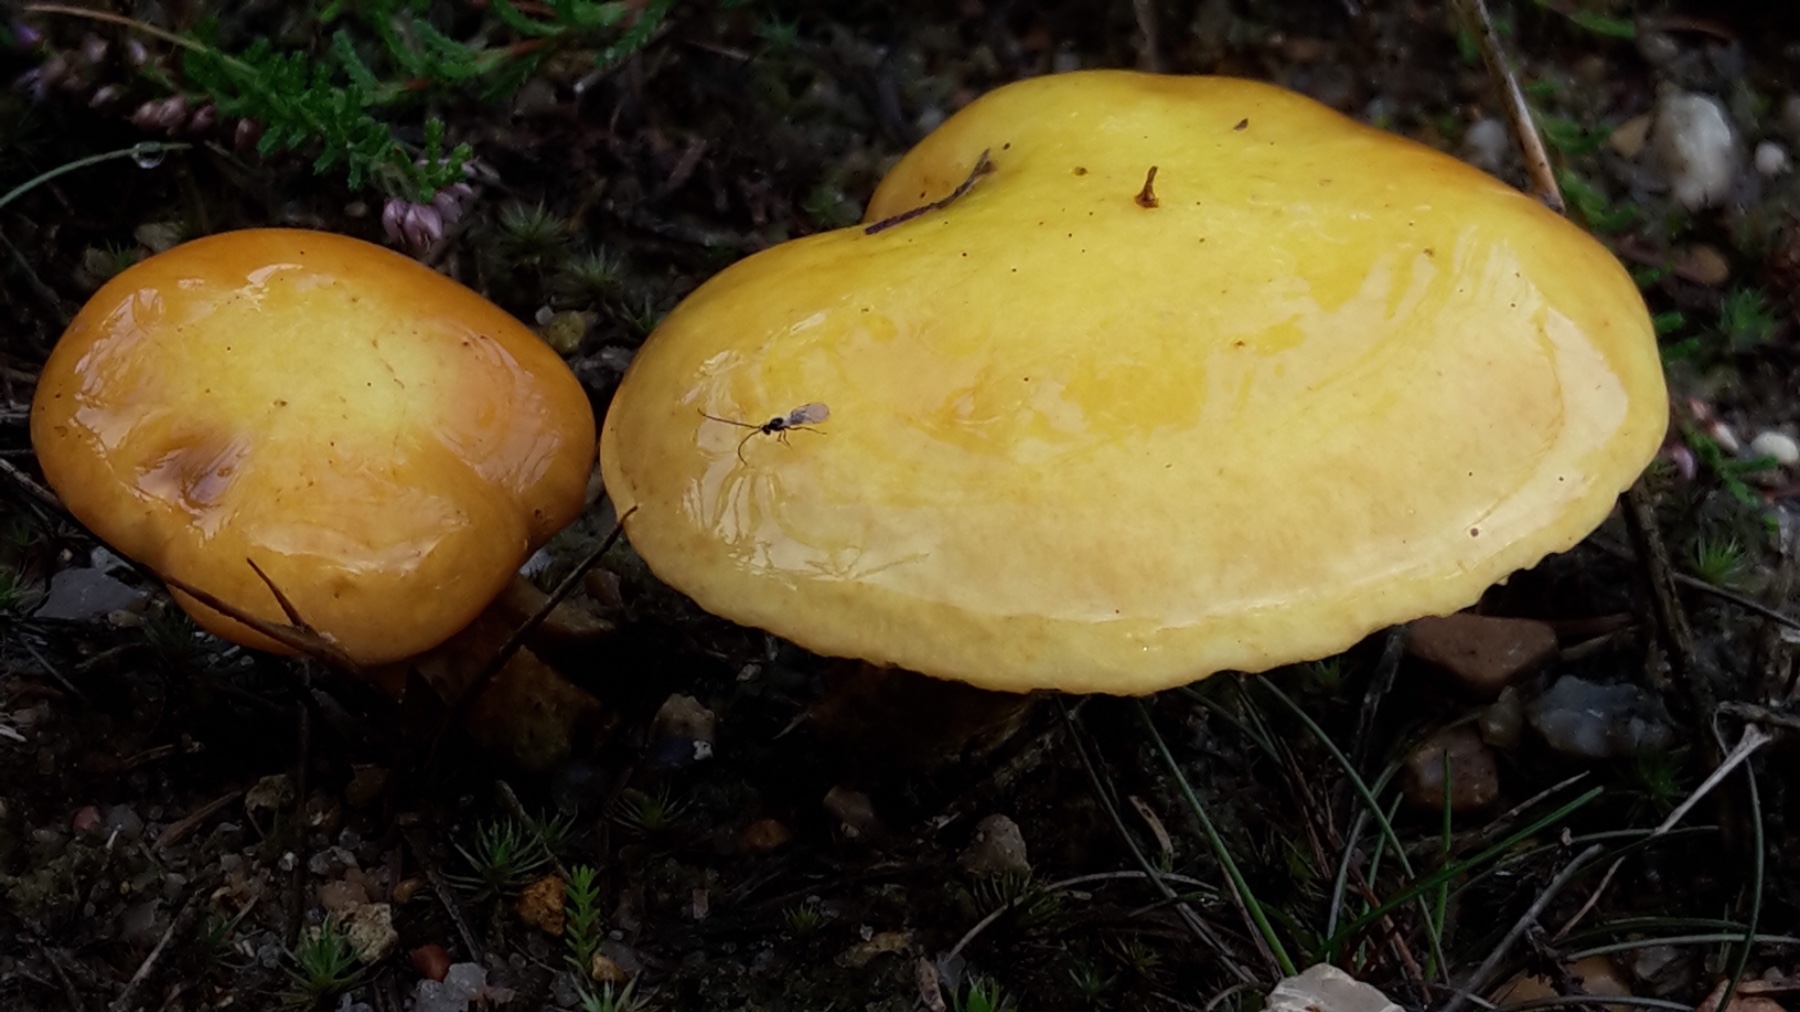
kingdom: Fungi
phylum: Basidiomycota
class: Agaricomycetes
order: Boletales
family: Suillaceae
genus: Suillus
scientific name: Suillus grevillei
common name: lærke-slimrørhat
